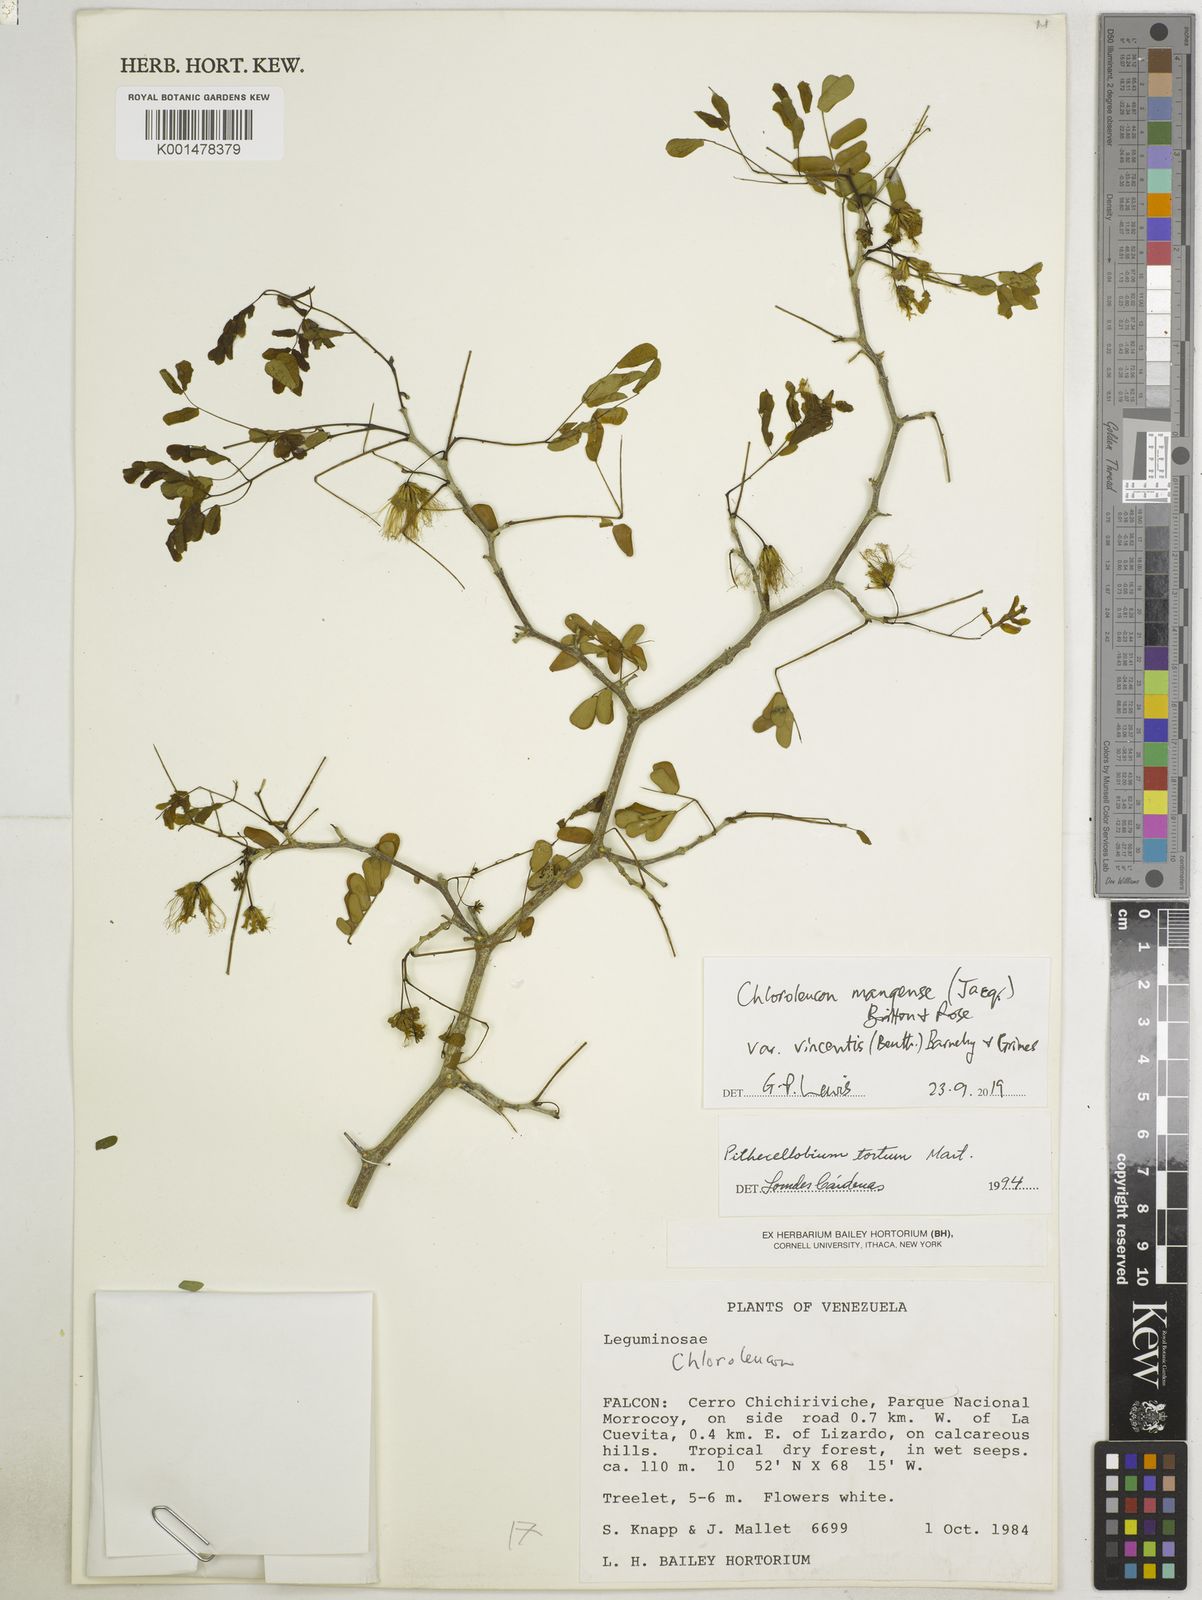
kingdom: Plantae
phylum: Tracheophyta
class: Magnoliopsida
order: Fabales
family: Fabaceae
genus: Chloroleucon
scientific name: Chloroleucon mangense
